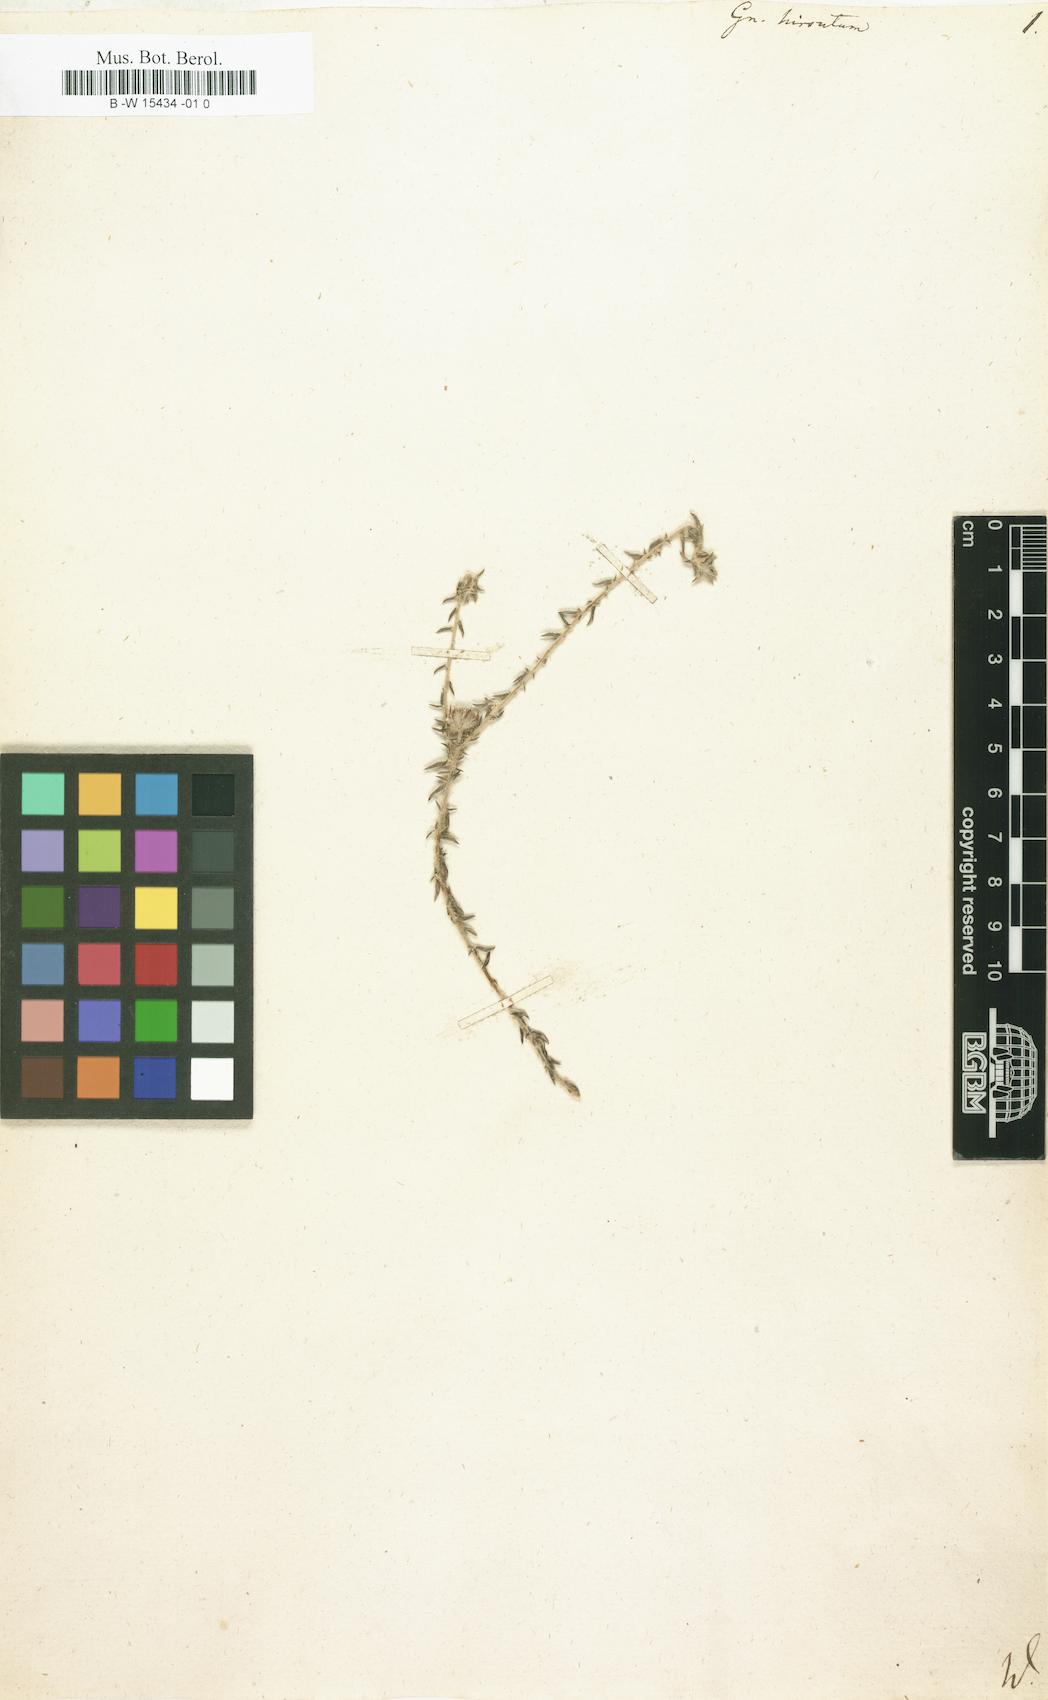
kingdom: Plantae
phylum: Tracheophyta
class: Magnoliopsida
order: Asterales
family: Asteraceae
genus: Anaxeton
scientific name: Anaxeton hirsutum
